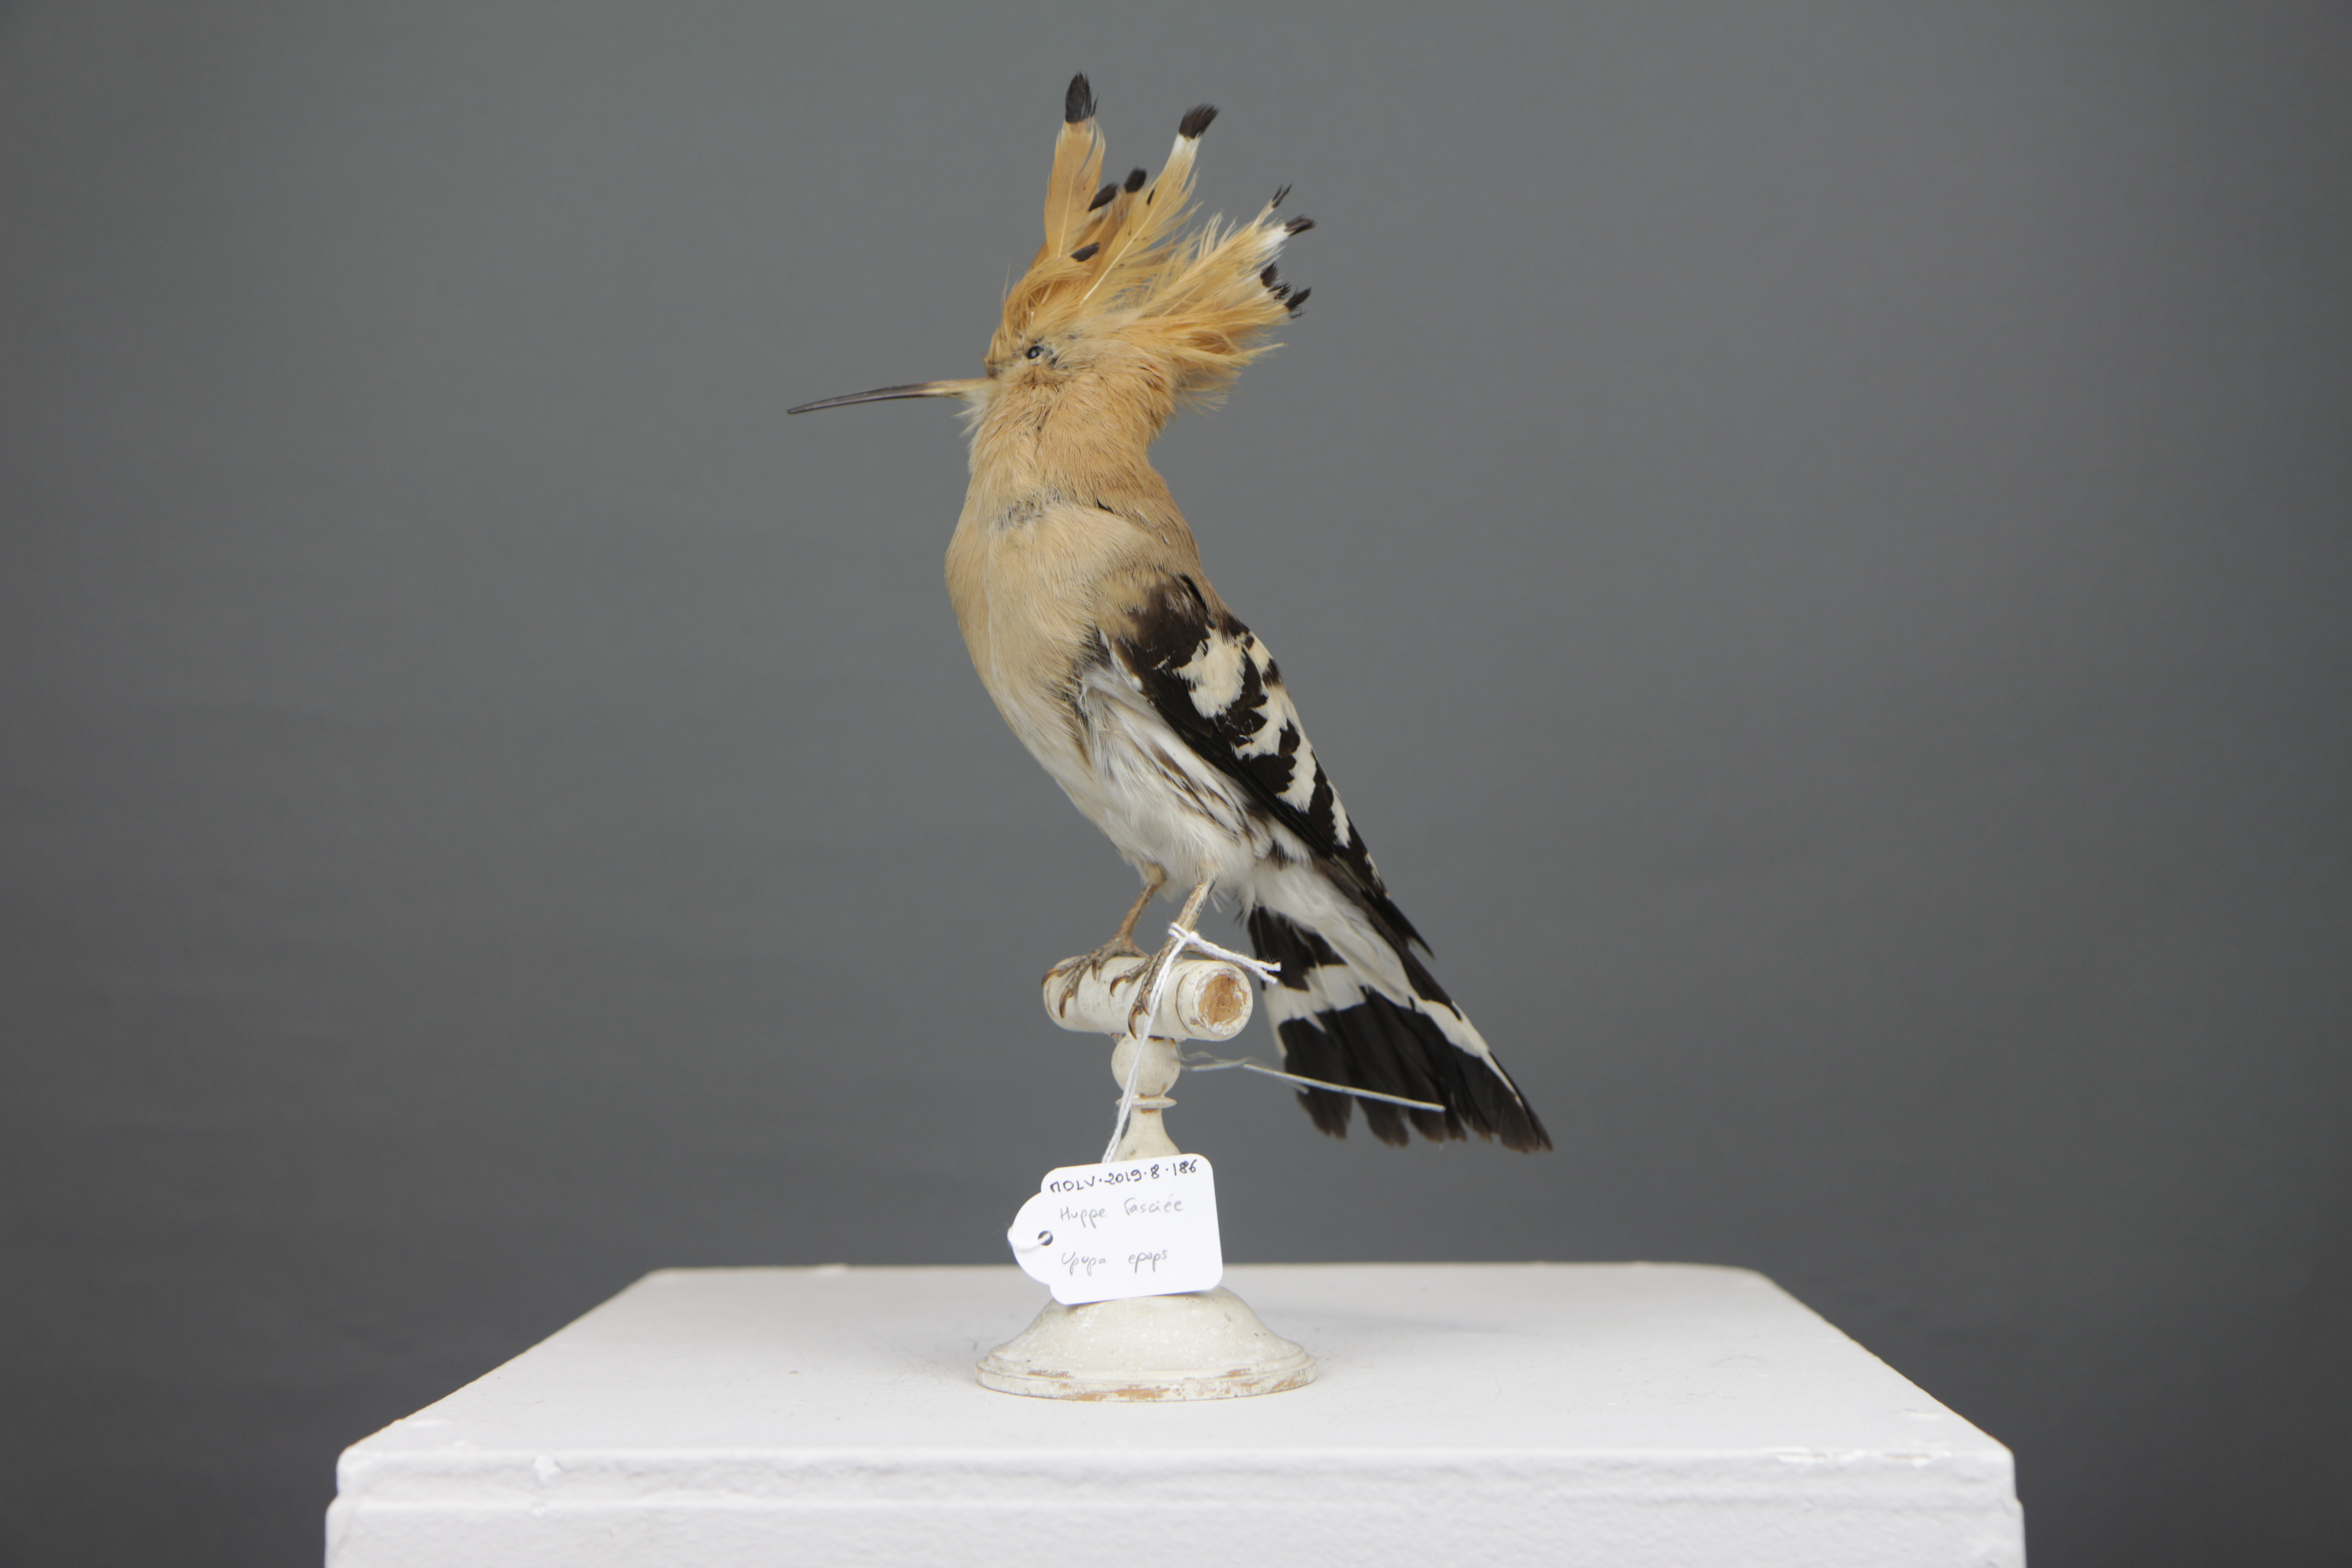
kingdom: Animalia
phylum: Chordata
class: Aves
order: Bucerotiformes
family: Upupidae
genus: Upupa
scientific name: Upupa epops
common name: Eurasian hoopoe
